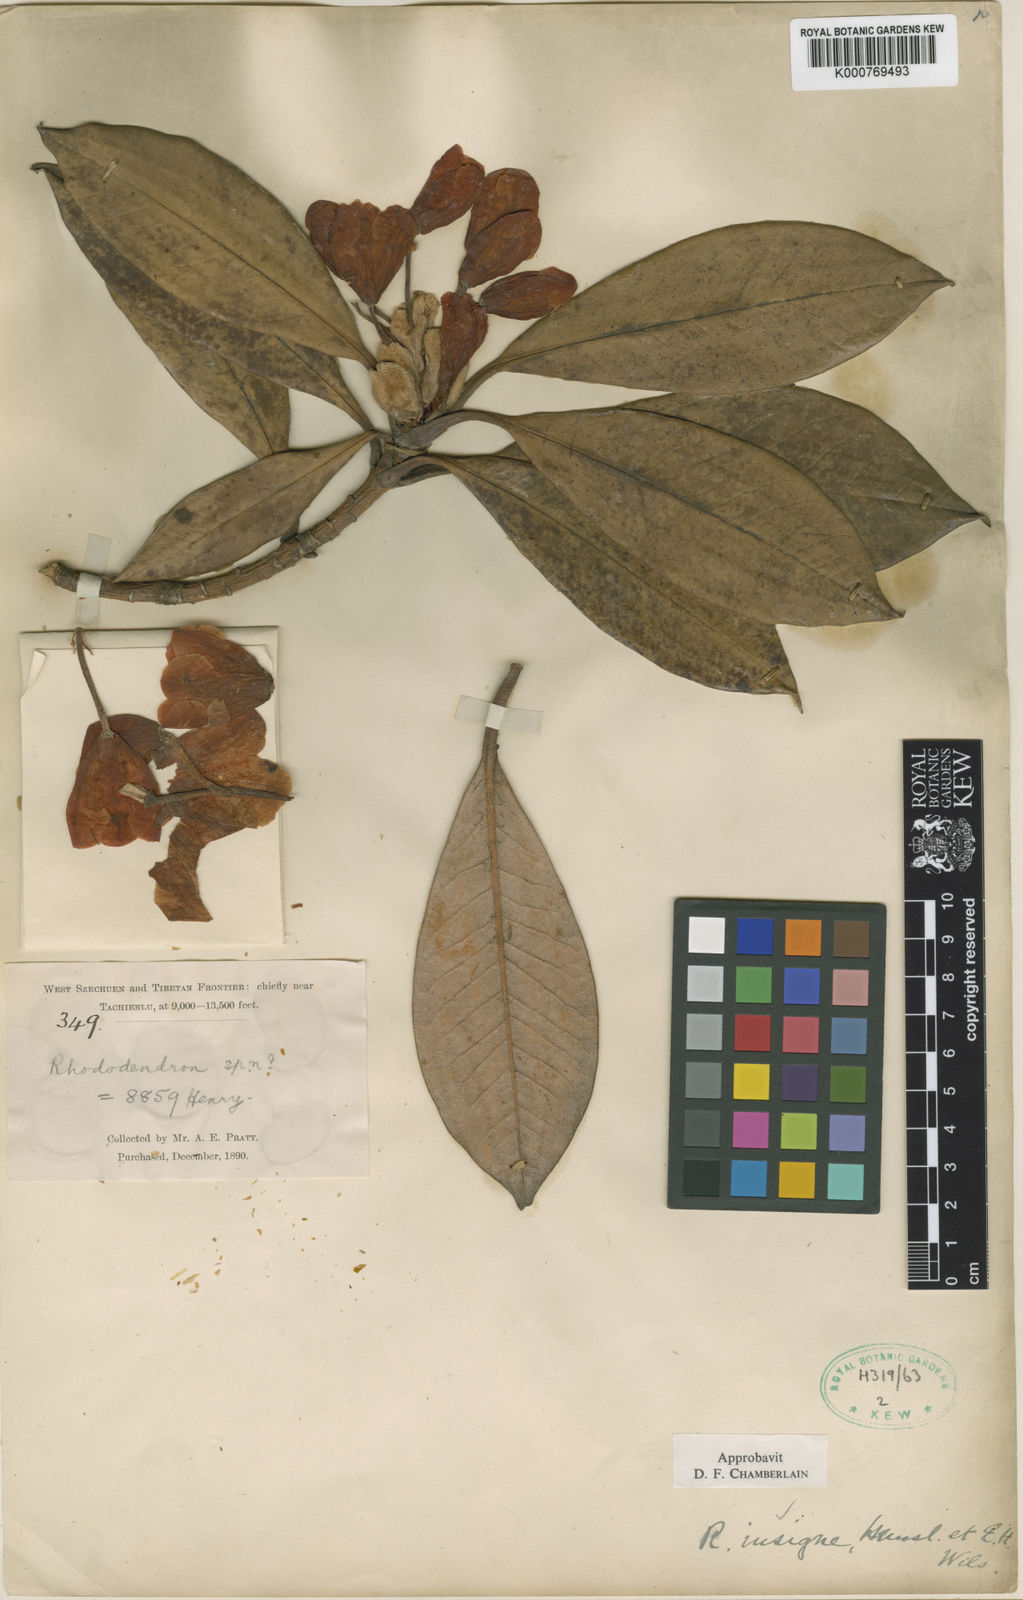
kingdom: Plantae
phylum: Tracheophyta
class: Magnoliopsida
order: Ericales
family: Ericaceae
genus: Rhododendron
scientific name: Rhododendron insigne
